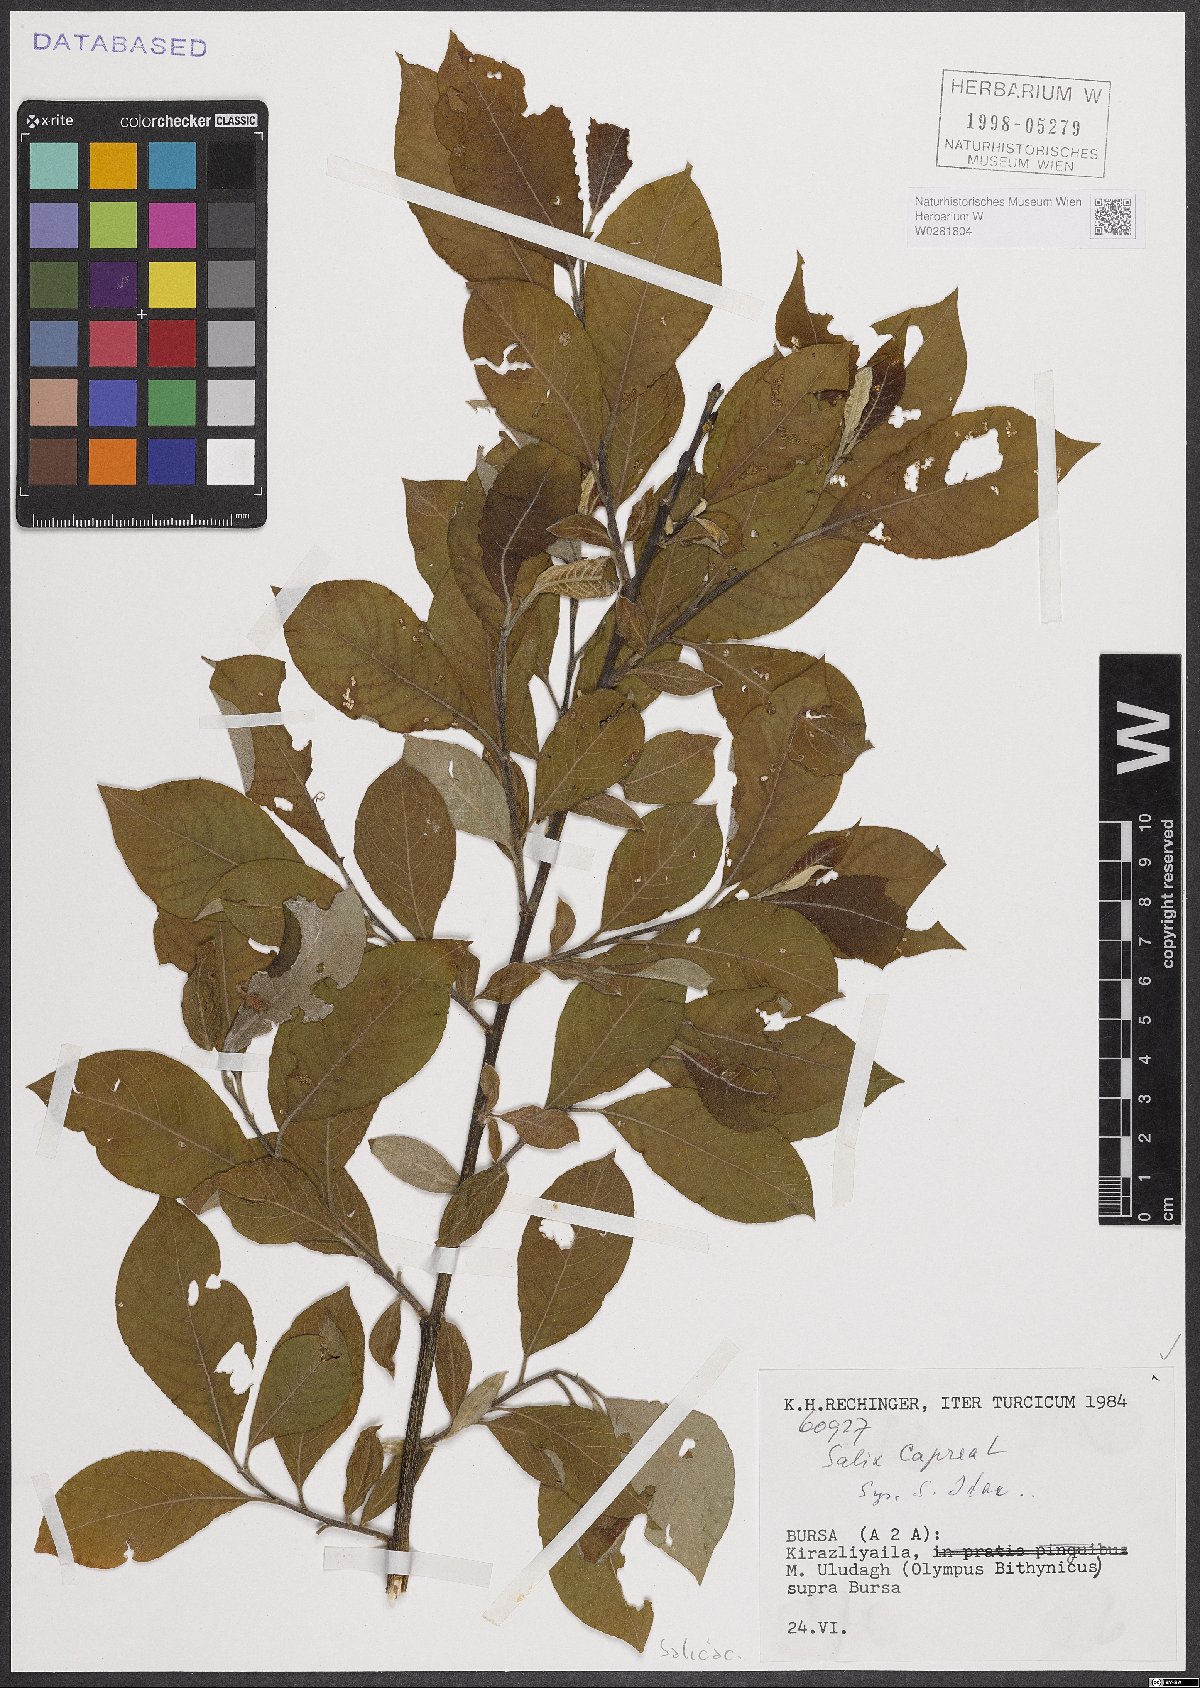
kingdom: Plantae
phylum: Tracheophyta
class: Magnoliopsida
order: Malpighiales
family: Salicaceae
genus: Salix
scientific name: Salix caprea
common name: Goat willow
